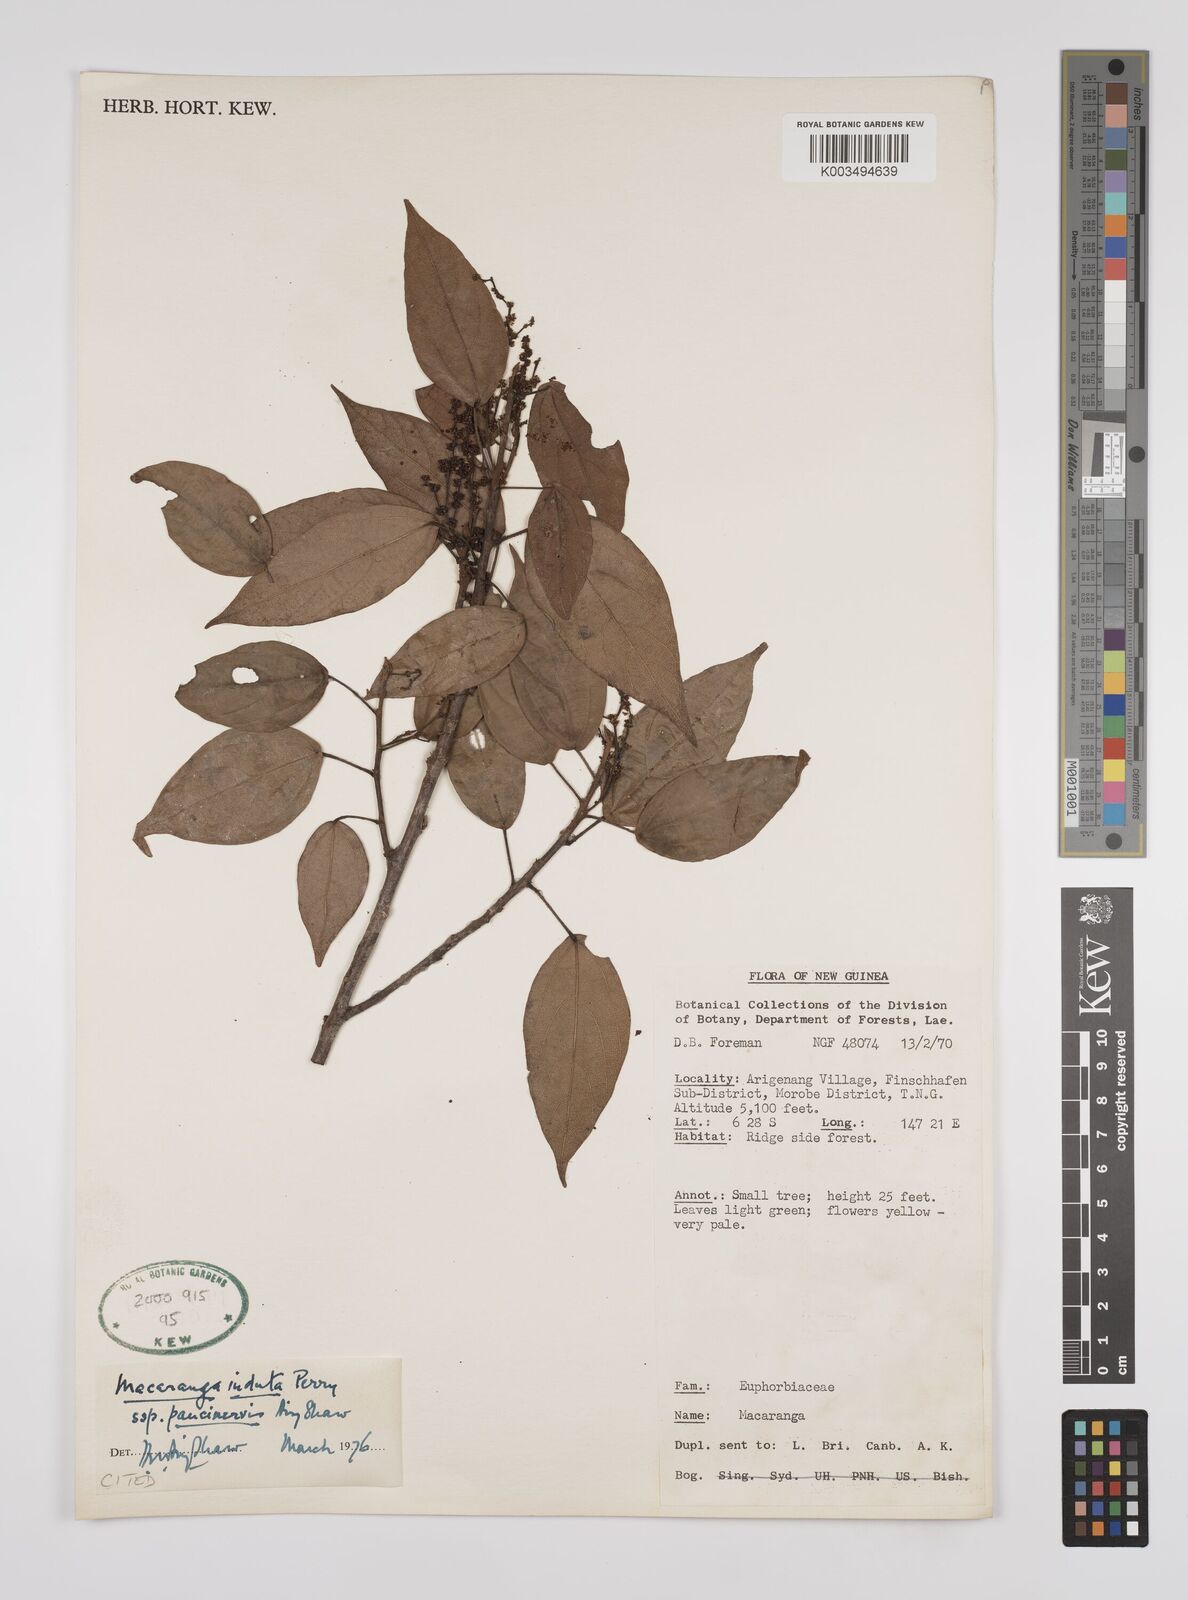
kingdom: Plantae
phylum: Tracheophyta
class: Magnoliopsida
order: Malpighiales
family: Euphorbiaceae
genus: Macaranga
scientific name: Macaranga induta
